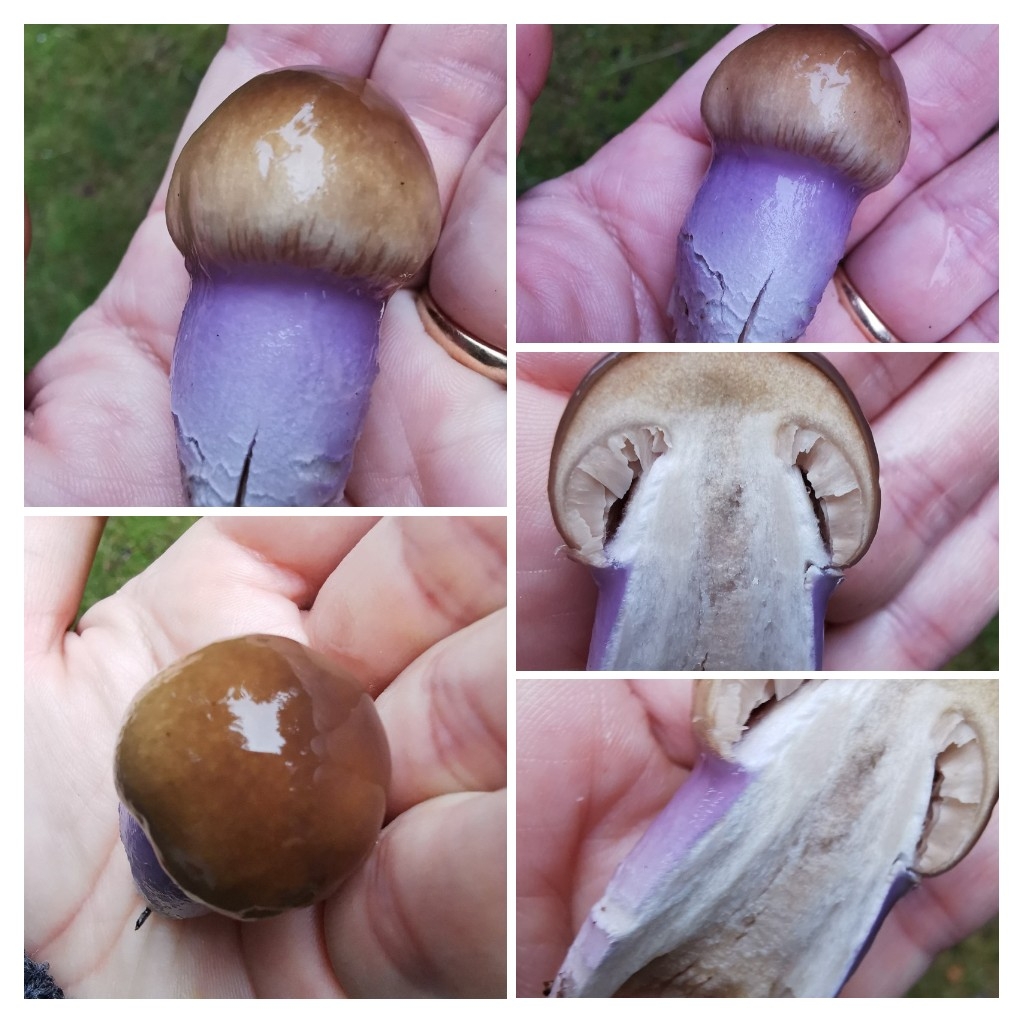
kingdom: Fungi
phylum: Basidiomycota
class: Agaricomycetes
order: Agaricales
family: Cortinariaceae
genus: Cortinarius
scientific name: Cortinarius
